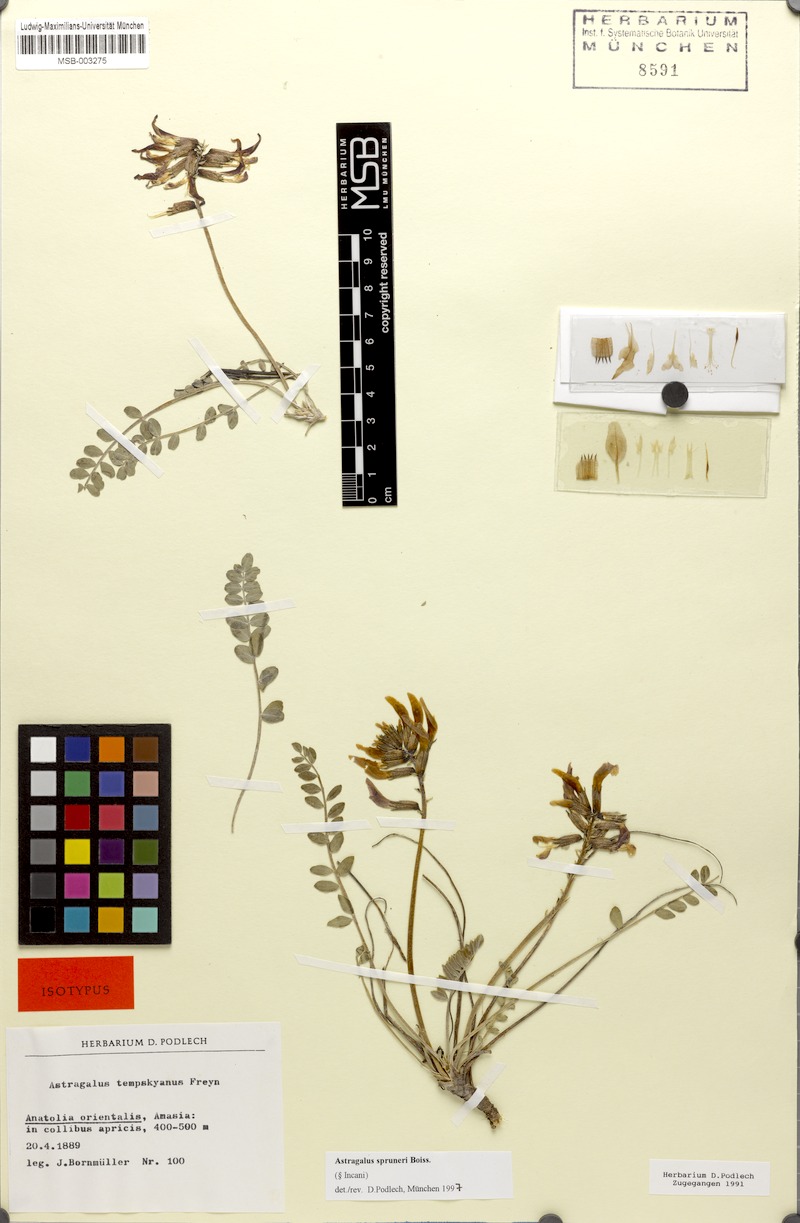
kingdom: Plantae
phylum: Tracheophyta
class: Magnoliopsida
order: Fabales
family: Fabaceae
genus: Astragalus
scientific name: Astragalus spruneri
